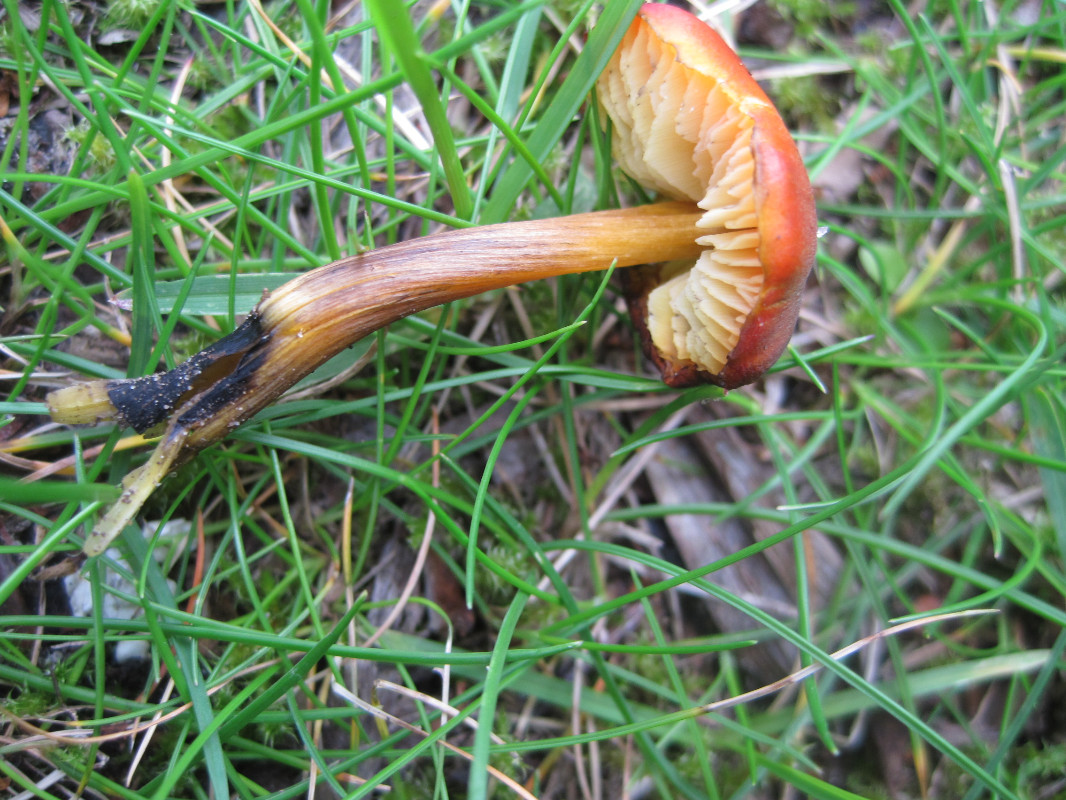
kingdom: Fungi
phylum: Basidiomycota
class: Agaricomycetes
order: Agaricales
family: Hygrophoraceae
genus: Hygrocybe
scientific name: Hygrocybe conica
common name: kegle-vokshat
